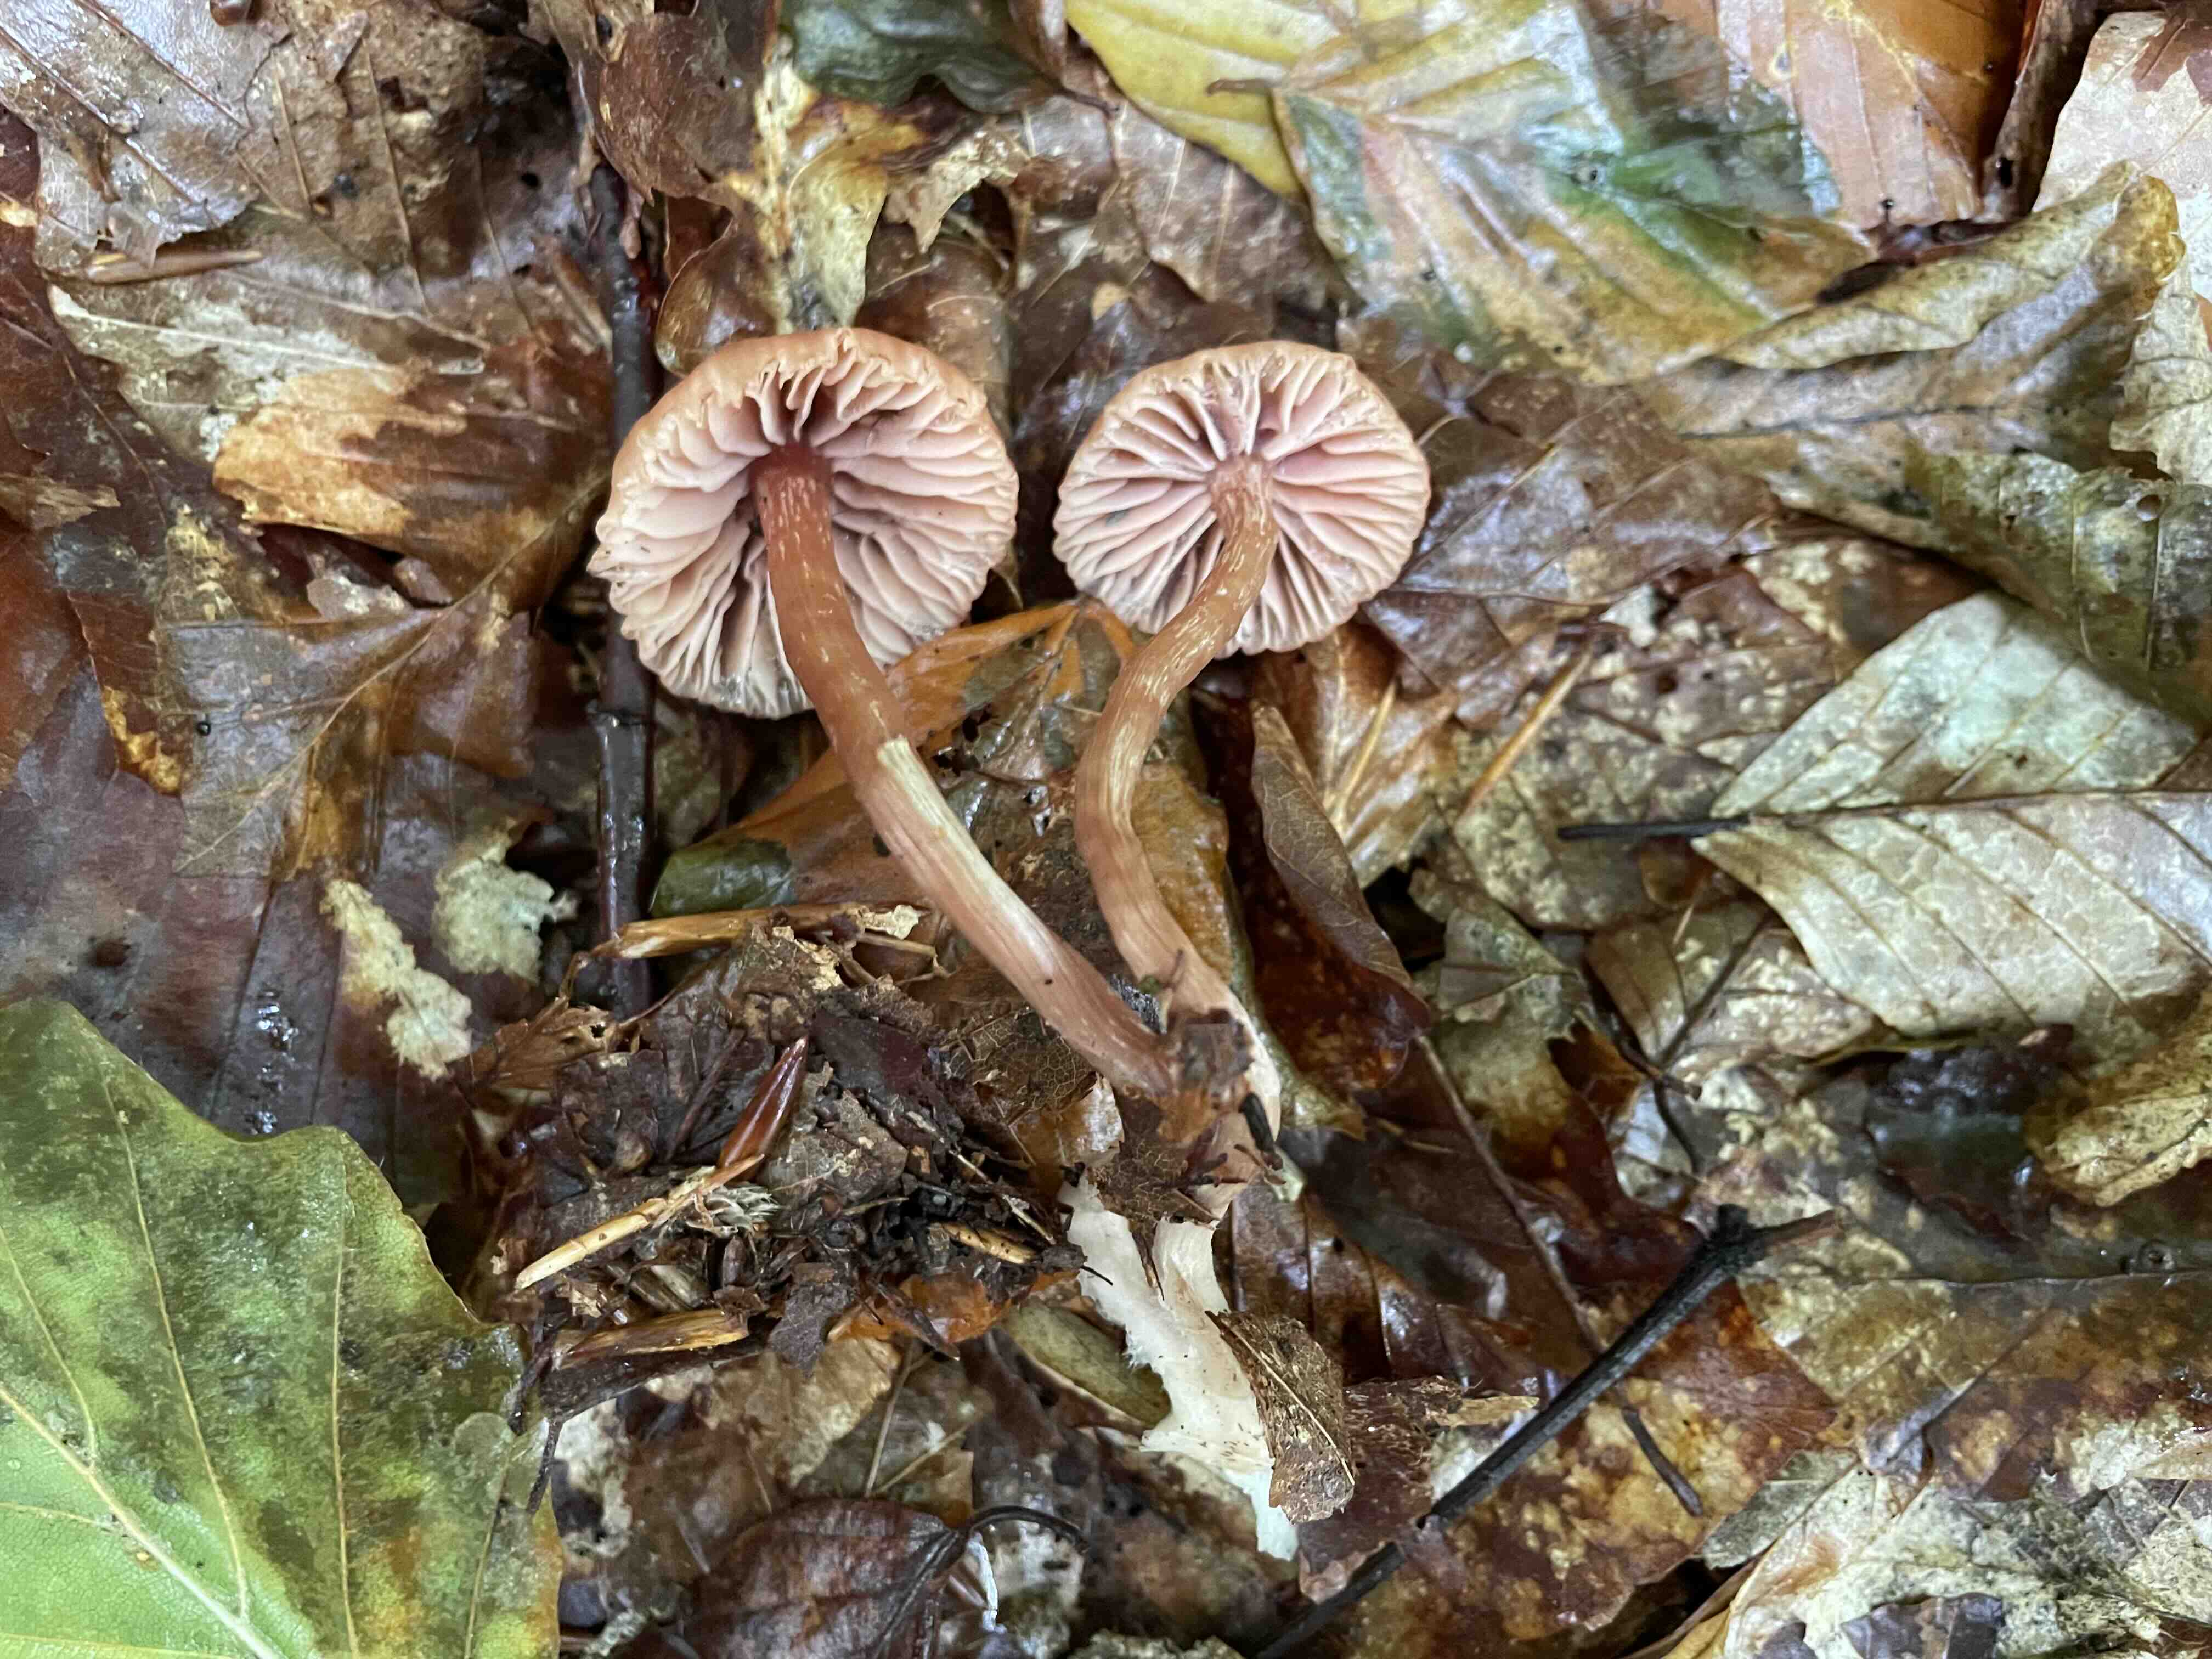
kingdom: Fungi
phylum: Basidiomycota
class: Agaricomycetes
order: Agaricales
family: Hydnangiaceae
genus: Laccaria
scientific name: Laccaria laccata
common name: rød ametysthat
